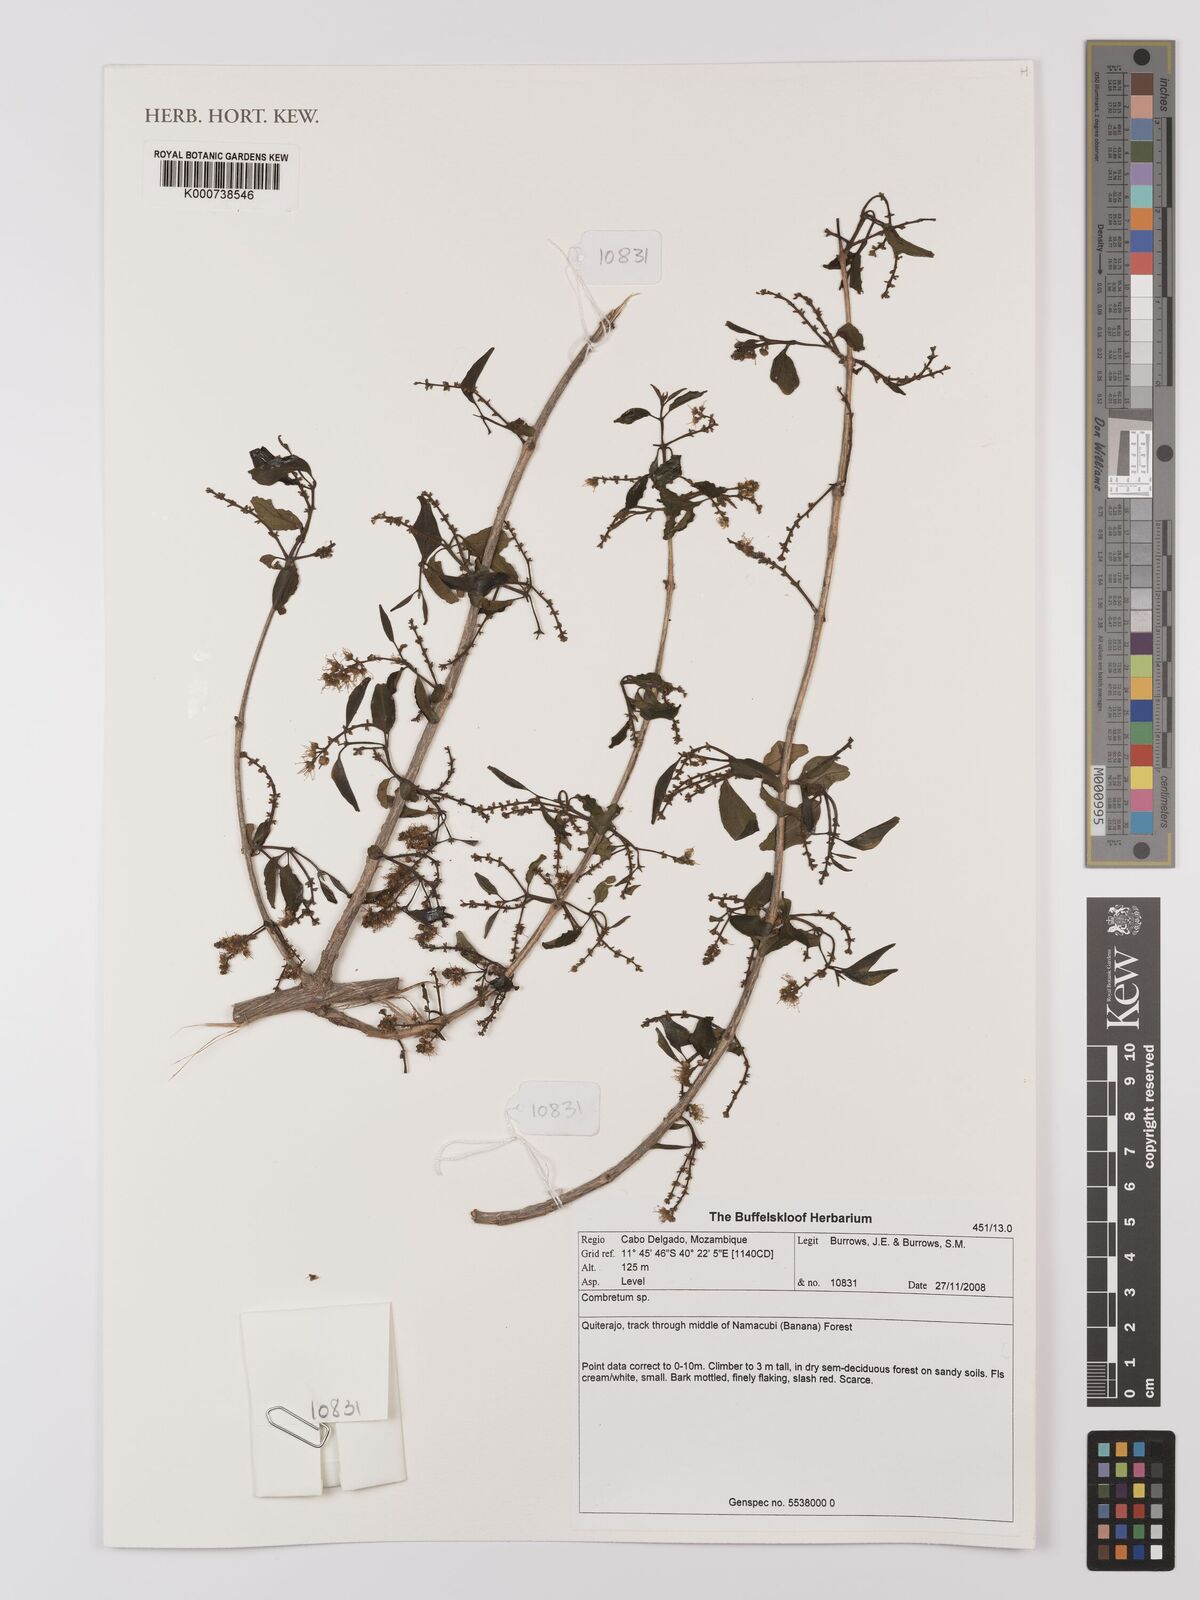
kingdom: Plantae
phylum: Tracheophyta
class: Magnoliopsida
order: Myrtales
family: Combretaceae
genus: Combretum
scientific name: Combretum
